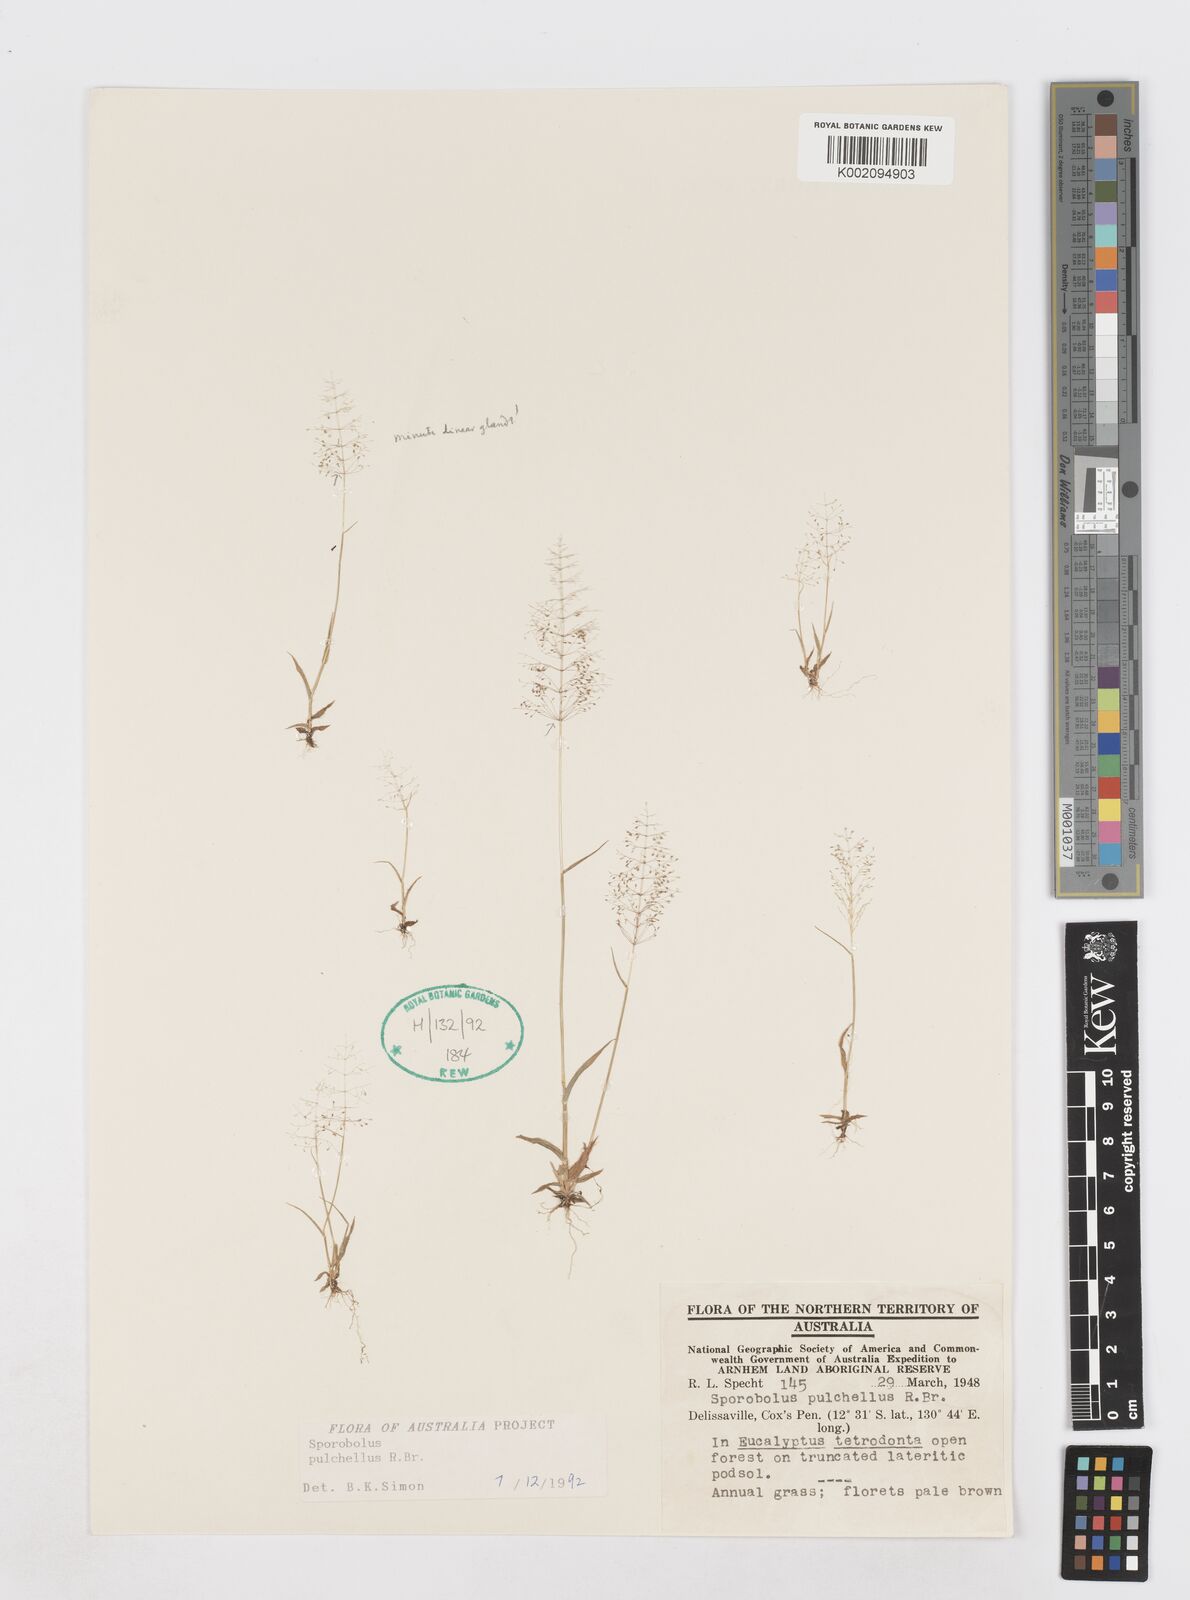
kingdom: Plantae
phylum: Tracheophyta
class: Liliopsida
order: Poales
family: Poaceae
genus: Sporobolus
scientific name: Sporobolus pulchellus
